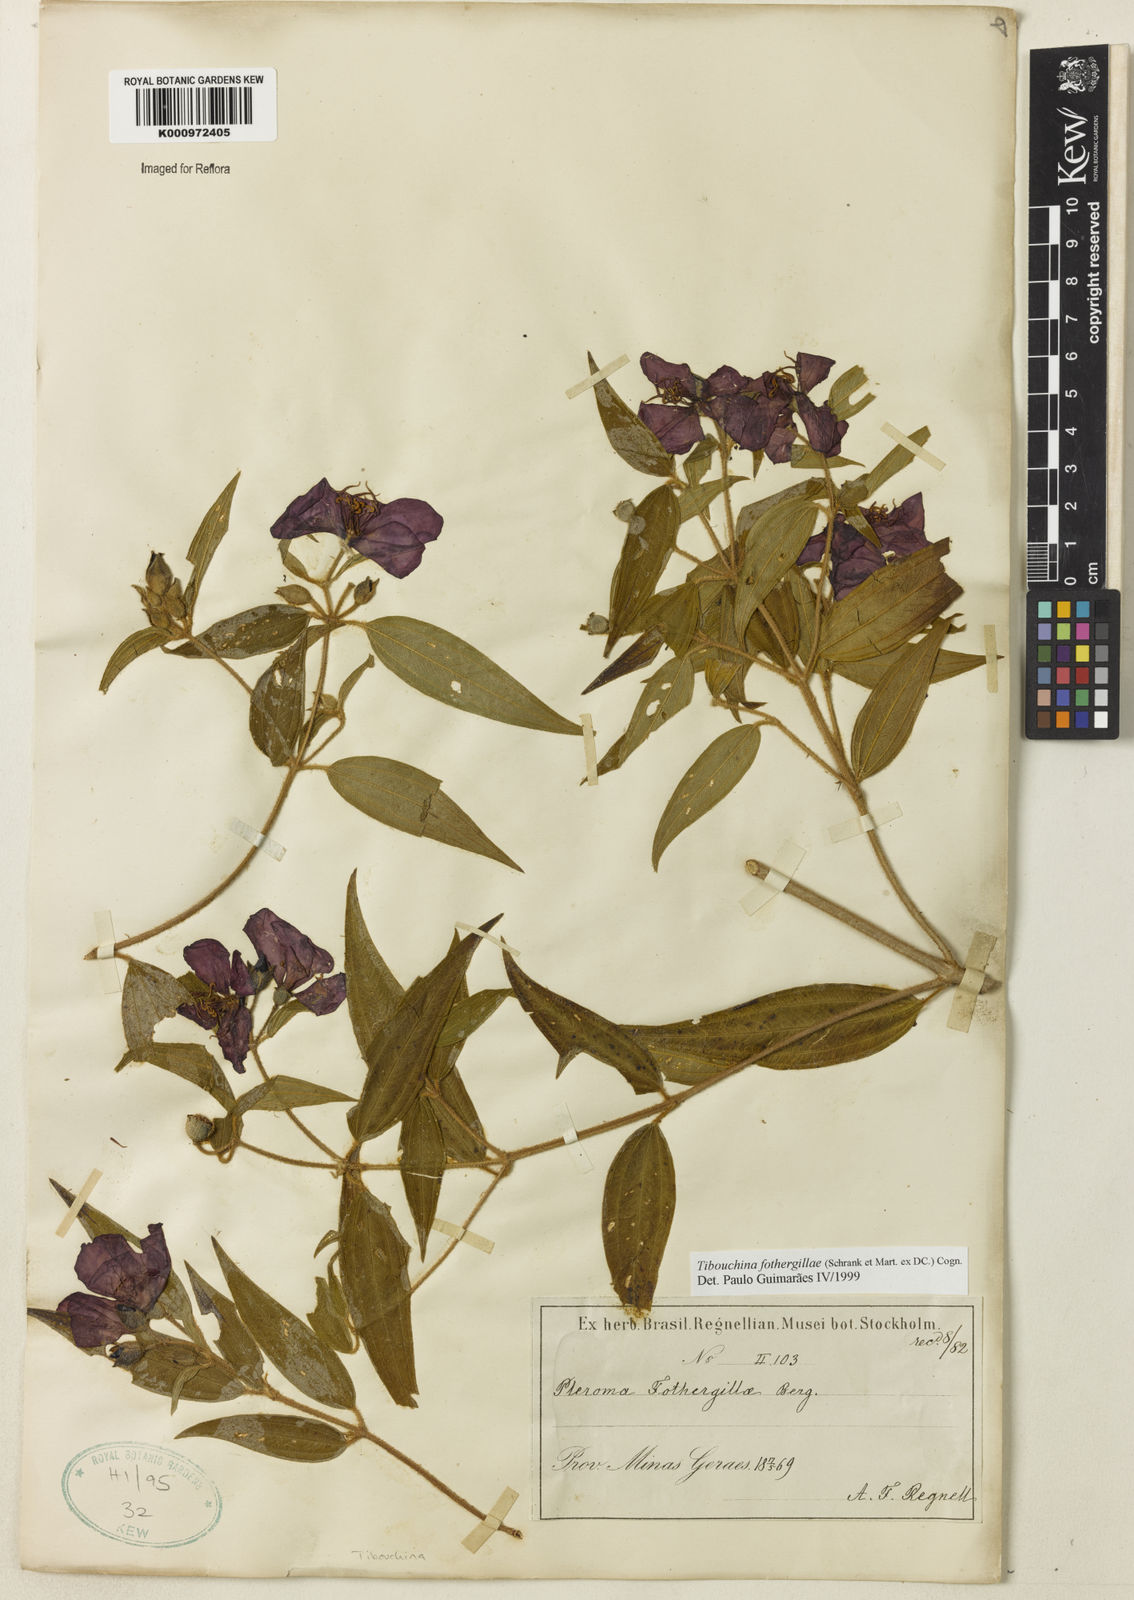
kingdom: Plantae
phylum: Tracheophyta
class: Magnoliopsida
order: Myrtales
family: Melastomataceae
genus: Pleroma
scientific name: Pleroma fothergillae
